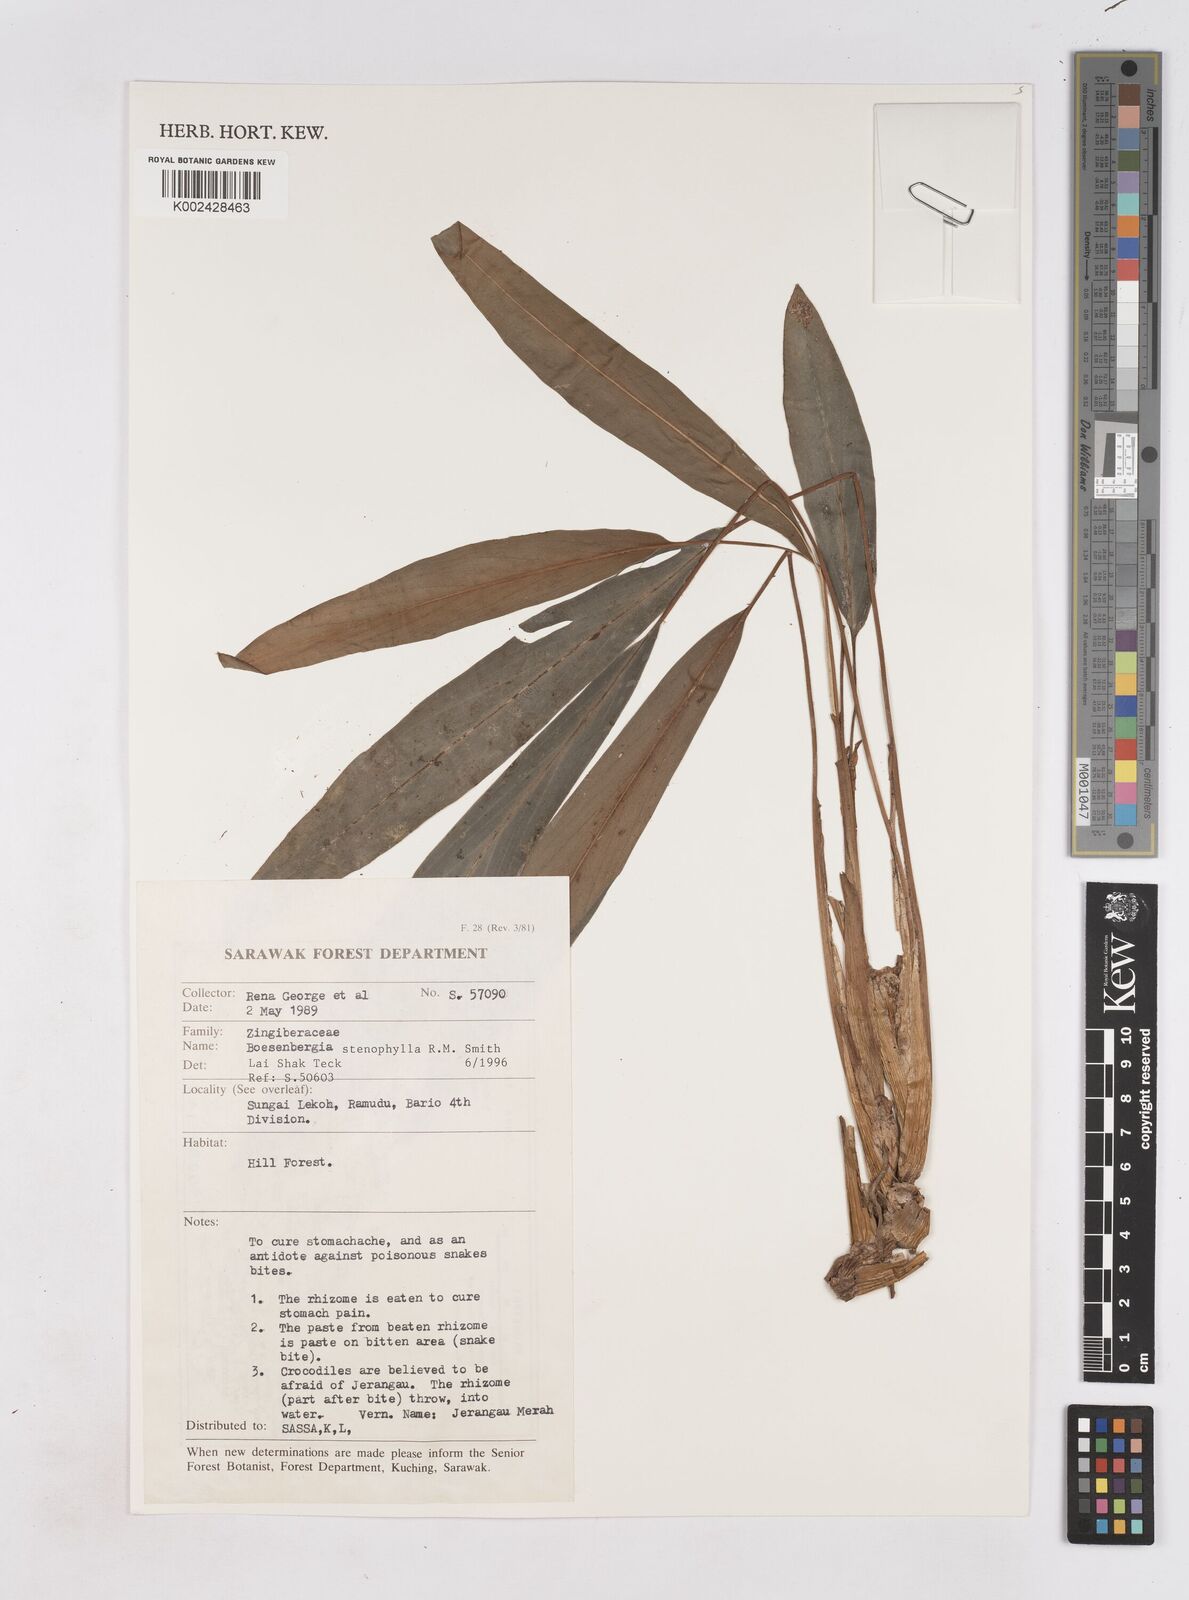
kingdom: Plantae
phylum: Tracheophyta
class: Liliopsida
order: Zingiberales
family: Zingiberaceae
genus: Boesenbergia
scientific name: Boesenbergia stenophylla
